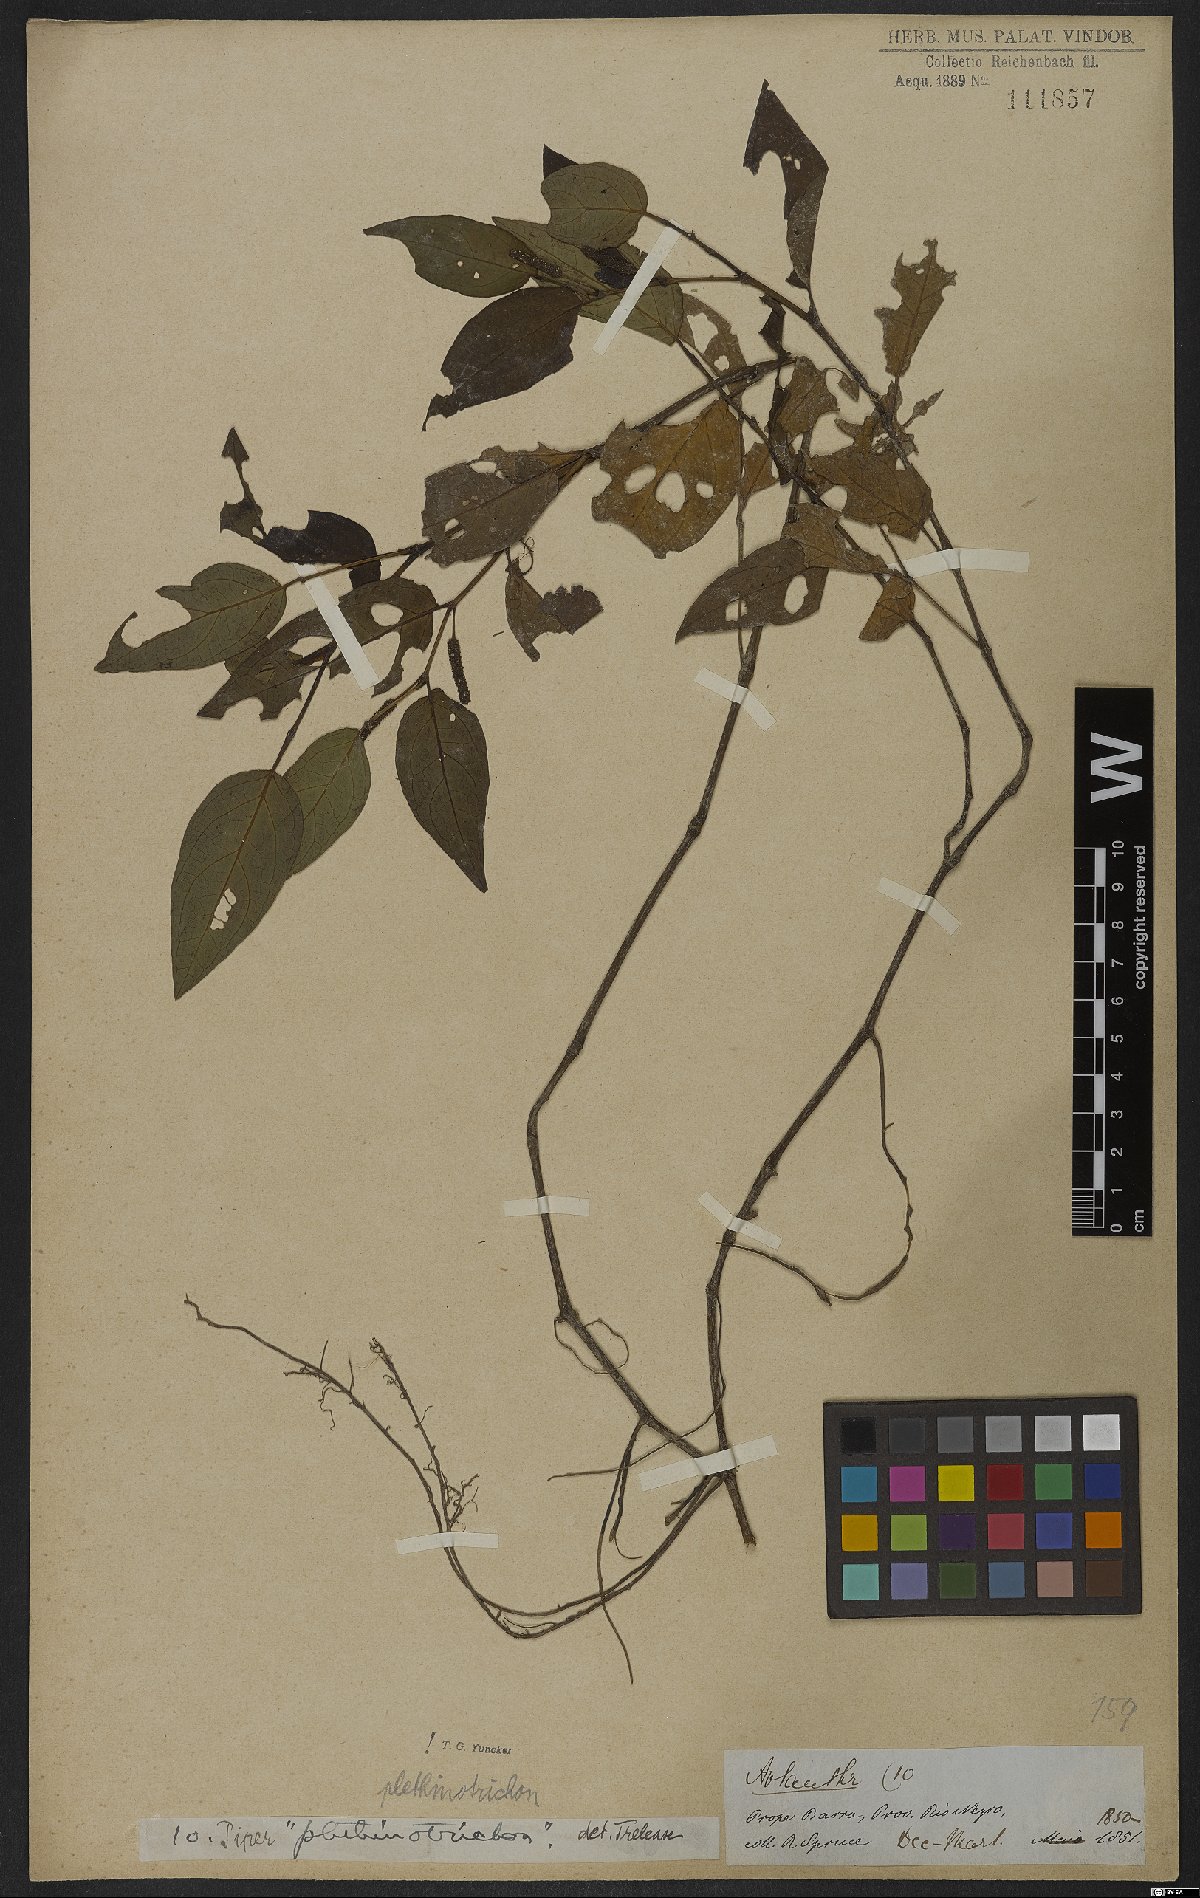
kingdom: Plantae
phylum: Tracheophyta
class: Magnoliopsida
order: Piperales
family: Piperaceae
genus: Piper
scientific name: Piper phytolaccifolium
